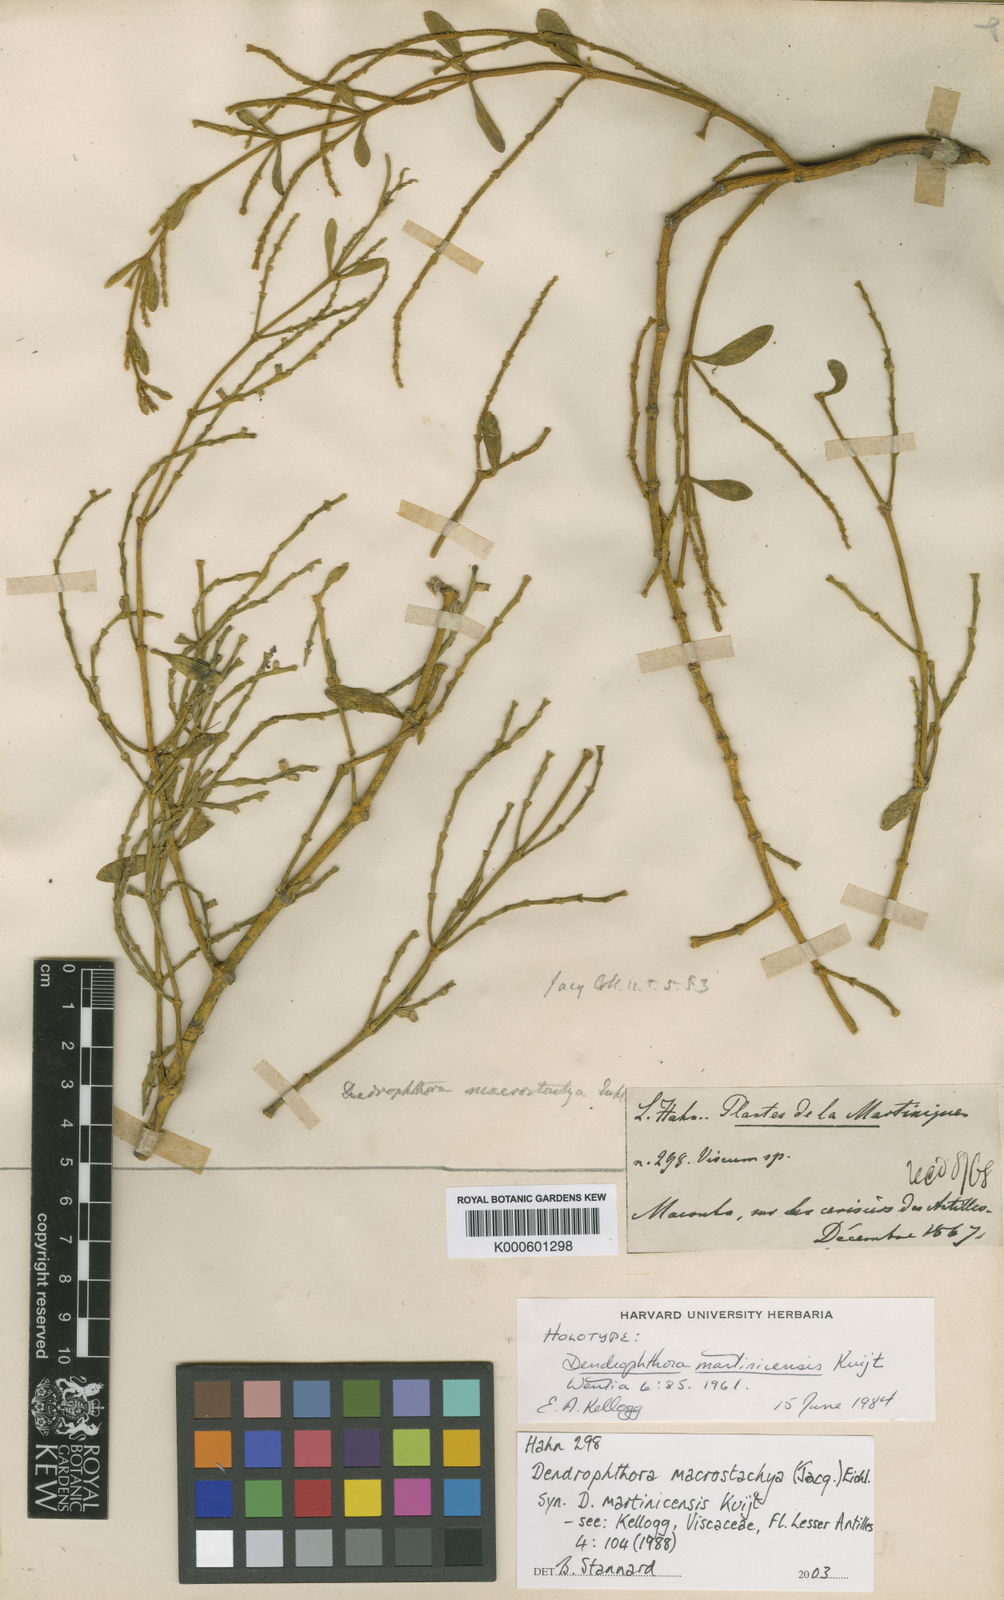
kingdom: Plantae
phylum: Tracheophyta
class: Magnoliopsida
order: Santalales
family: Viscaceae
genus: Dendrophthora
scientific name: Dendrophthora macrostachya
